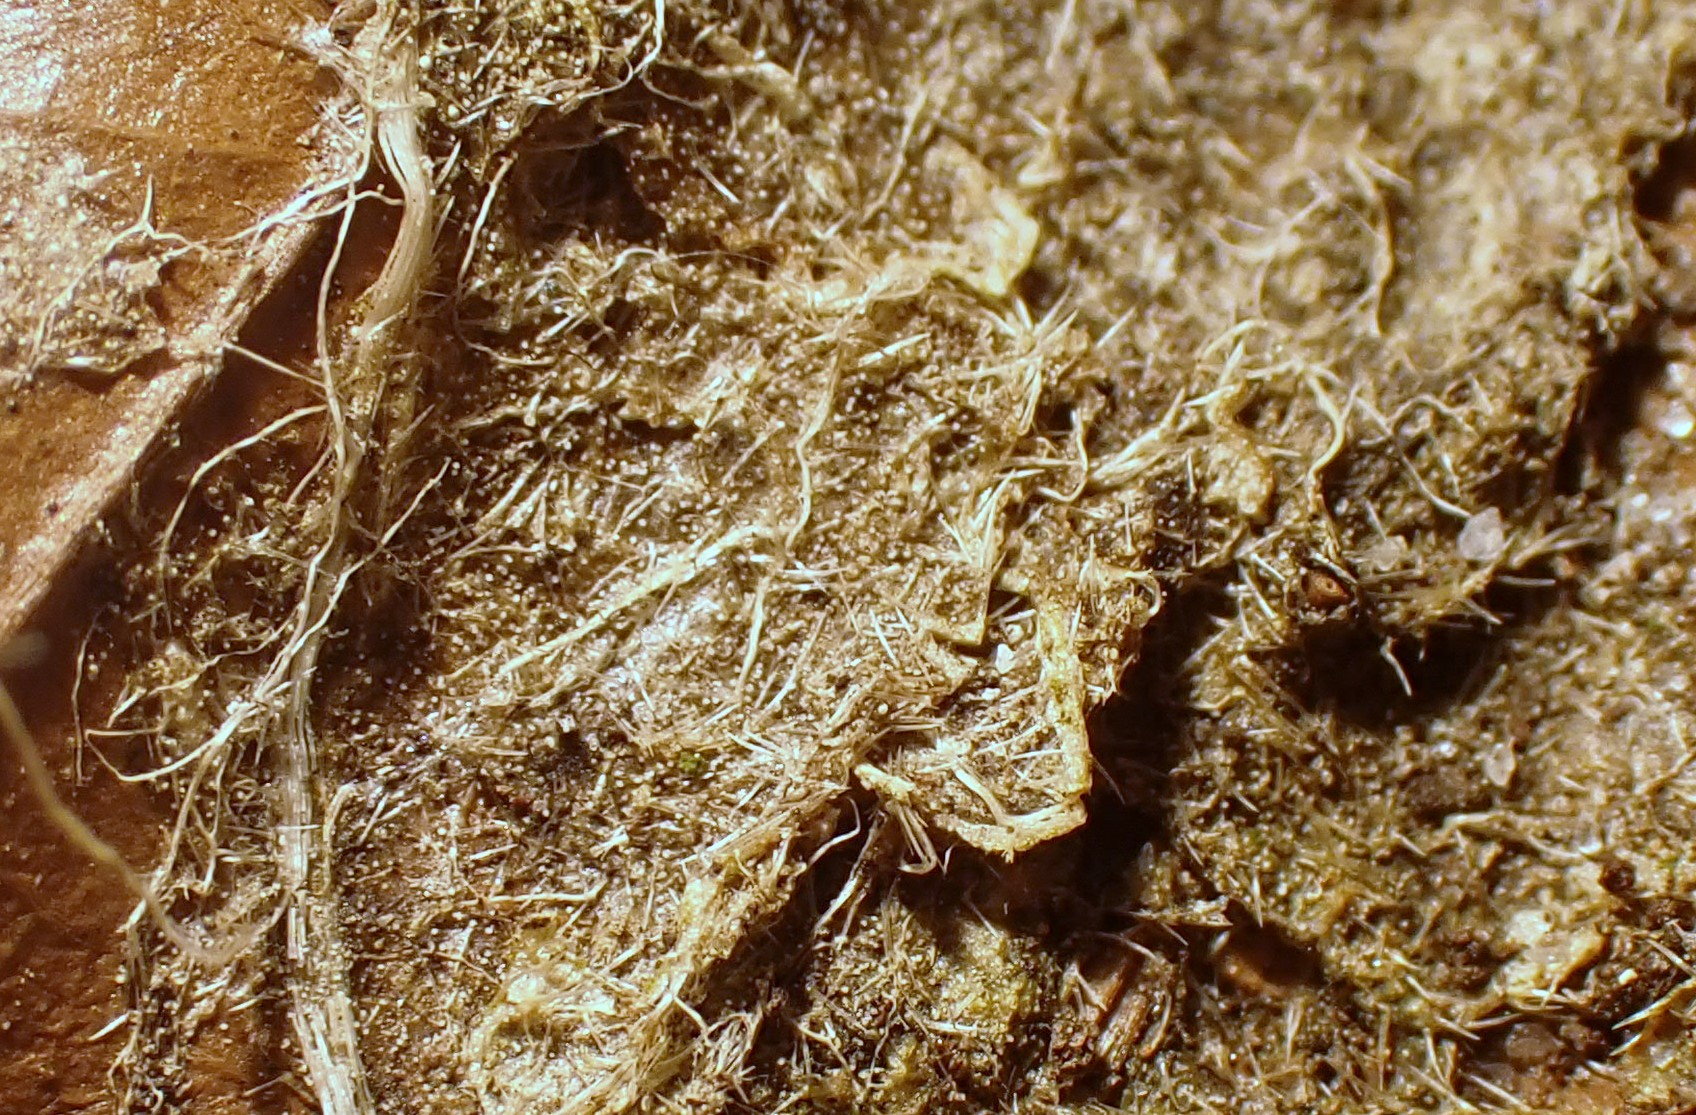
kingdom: Protozoa
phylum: Mycetozoa
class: Myxomycetes
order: Physarales
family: Didymiaceae
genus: Didymium
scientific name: Didymium squamulosum
